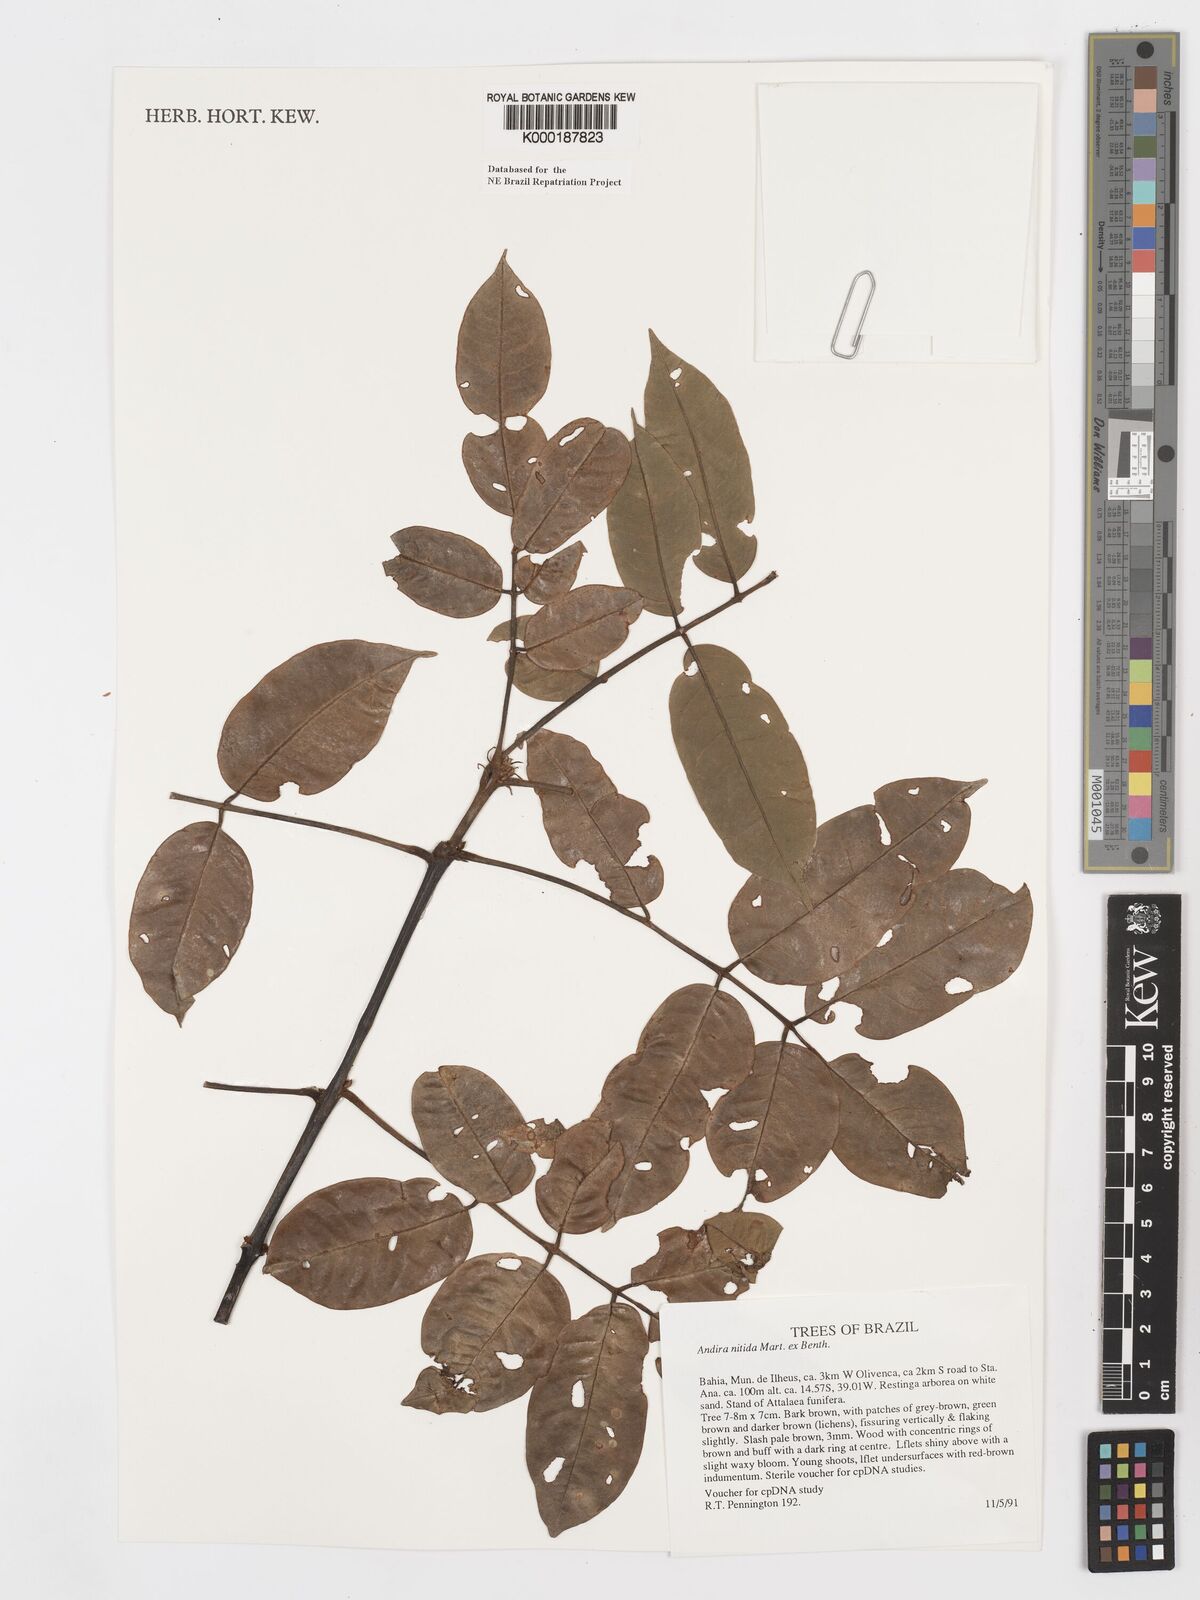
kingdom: Plantae
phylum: Tracheophyta
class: Magnoliopsida
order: Fabales
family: Fabaceae
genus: Andira
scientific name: Andira nitida
